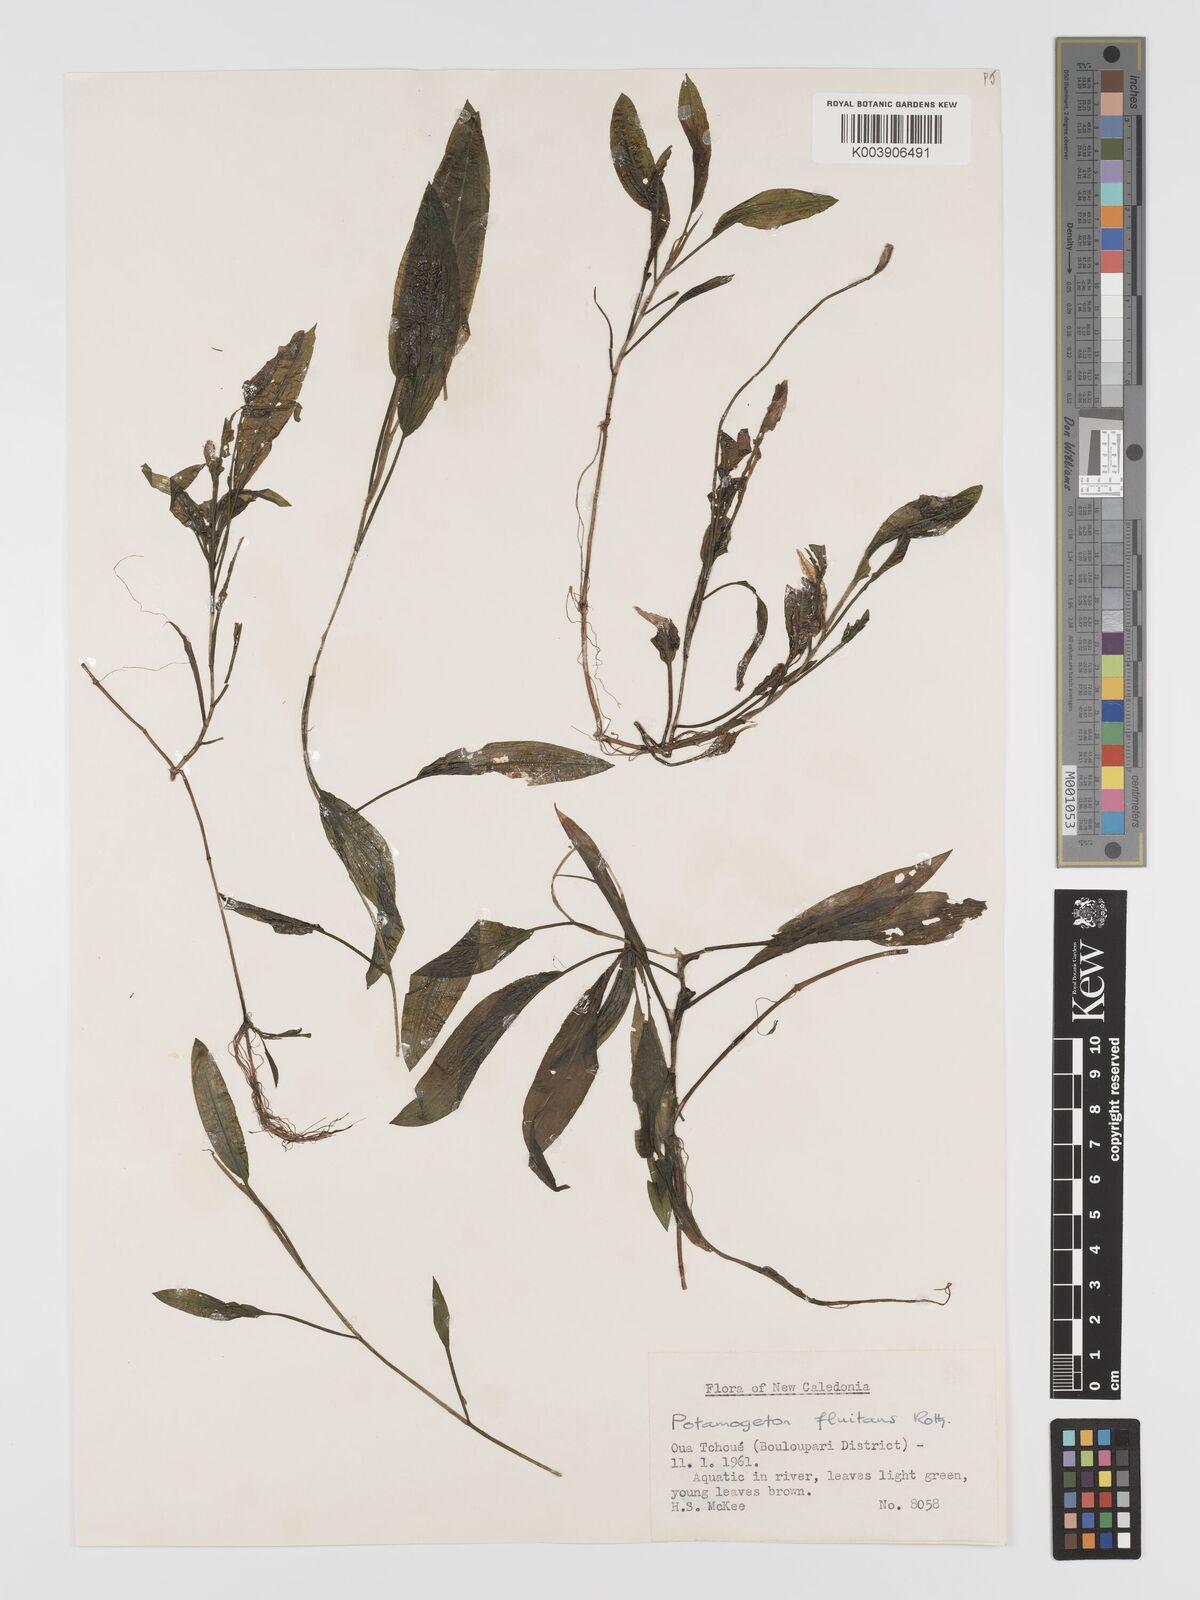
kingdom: Plantae
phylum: Tracheophyta
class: Liliopsida
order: Alismatales
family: Potamogetonaceae
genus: Potamogeton
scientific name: Potamogeton nodosus
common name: Loddon pondweed
